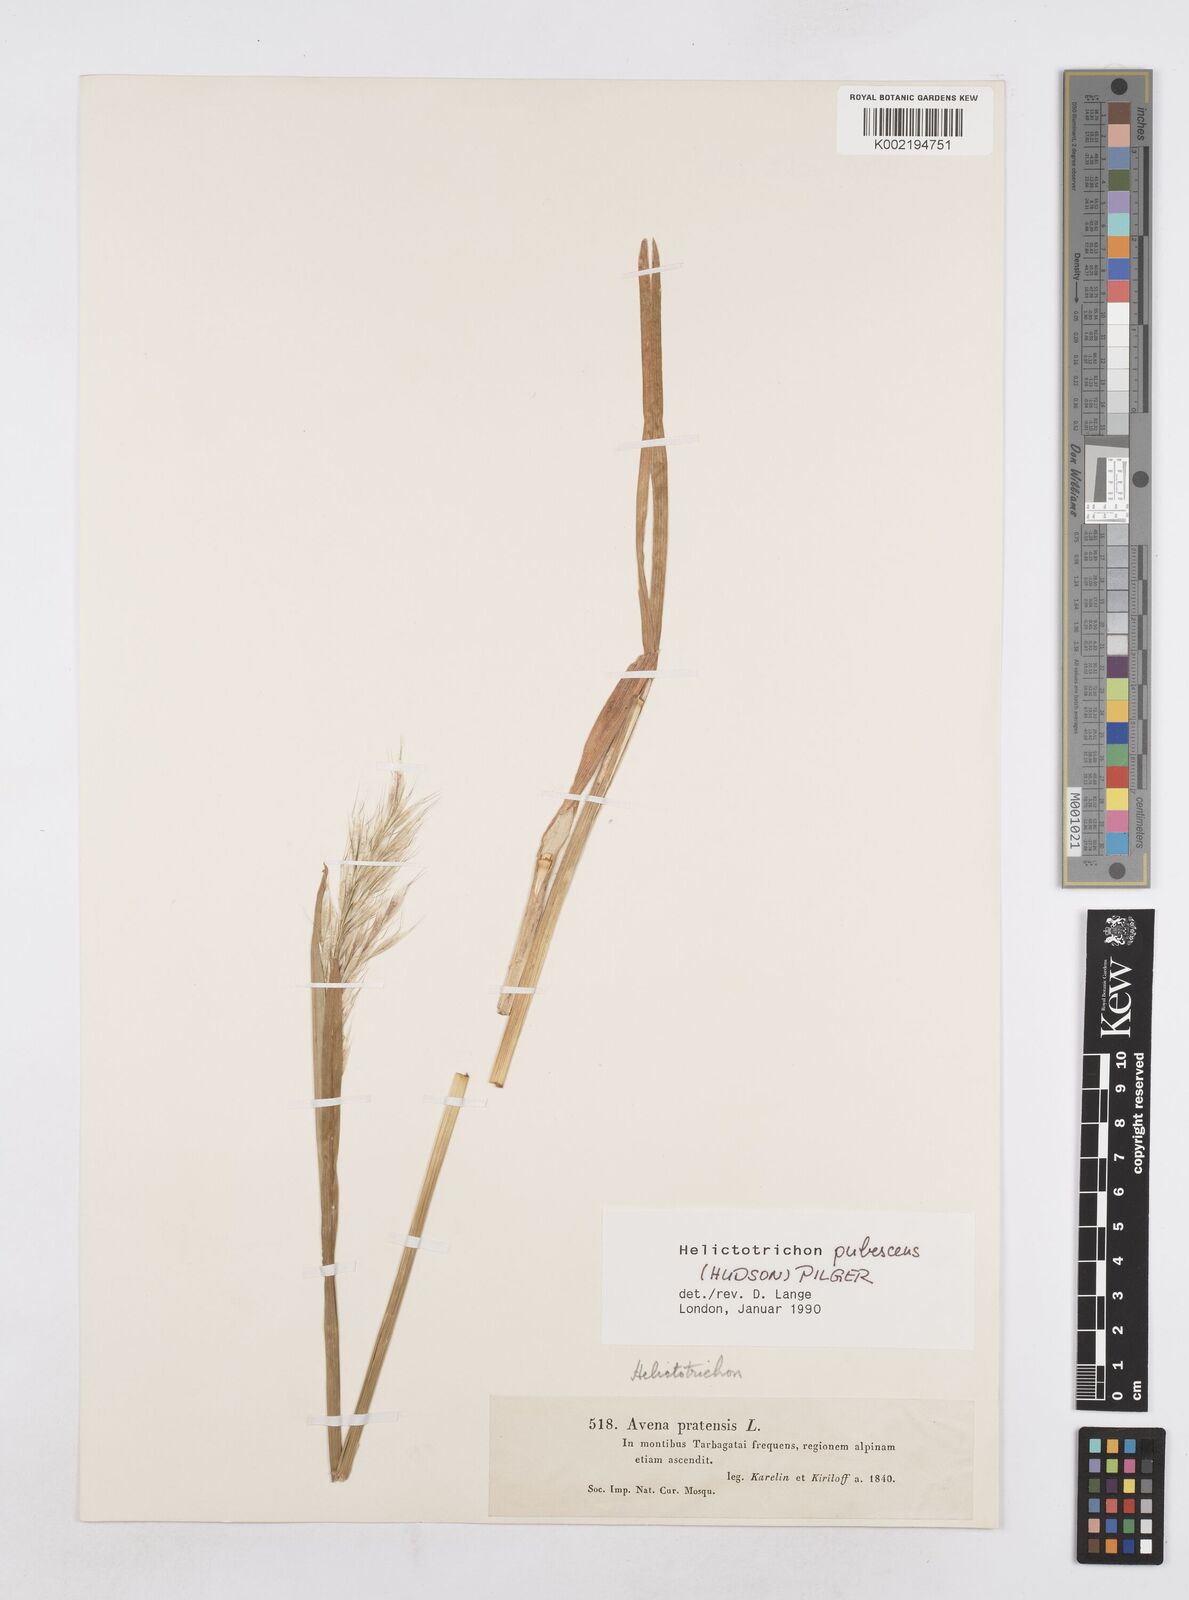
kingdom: Plantae
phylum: Tracheophyta
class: Liliopsida
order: Poales
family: Poaceae
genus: Avenula
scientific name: Avenula pubescens
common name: Downy alpine oatgrass
